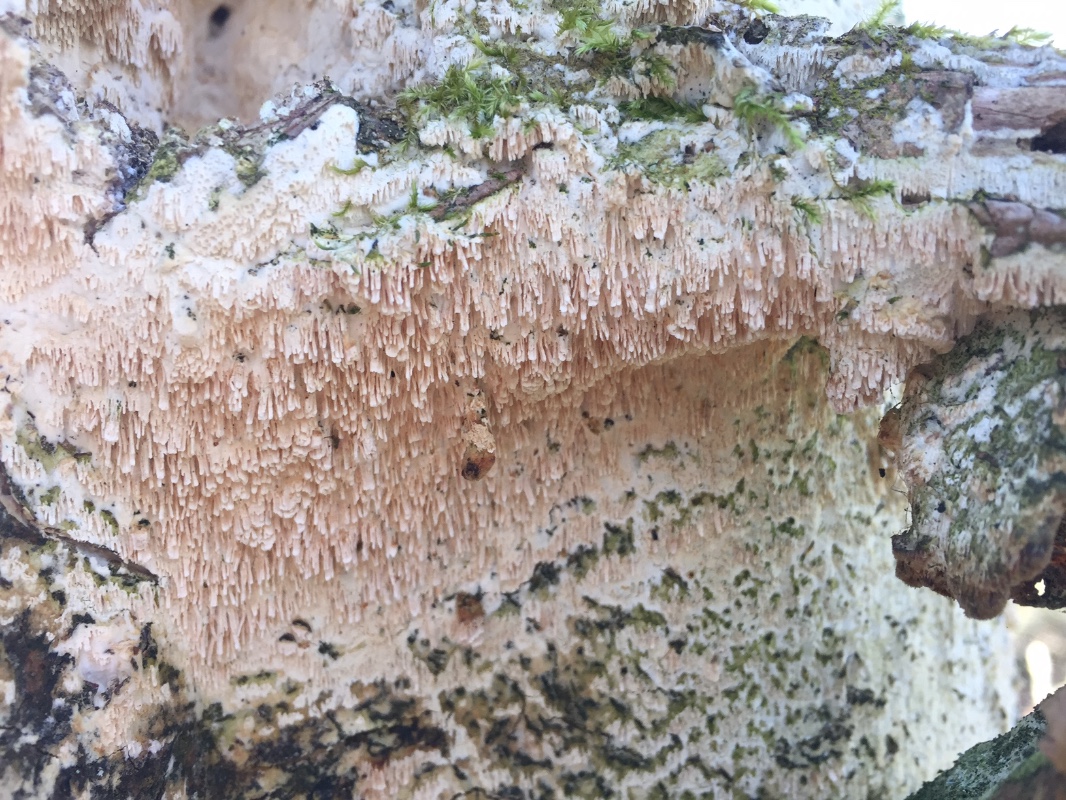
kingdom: Fungi
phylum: Basidiomycota
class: Agaricomycetes
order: Hymenochaetales
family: Schizoporaceae
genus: Schizopora
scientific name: Schizopora paradoxa
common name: hvid tandsvamp
